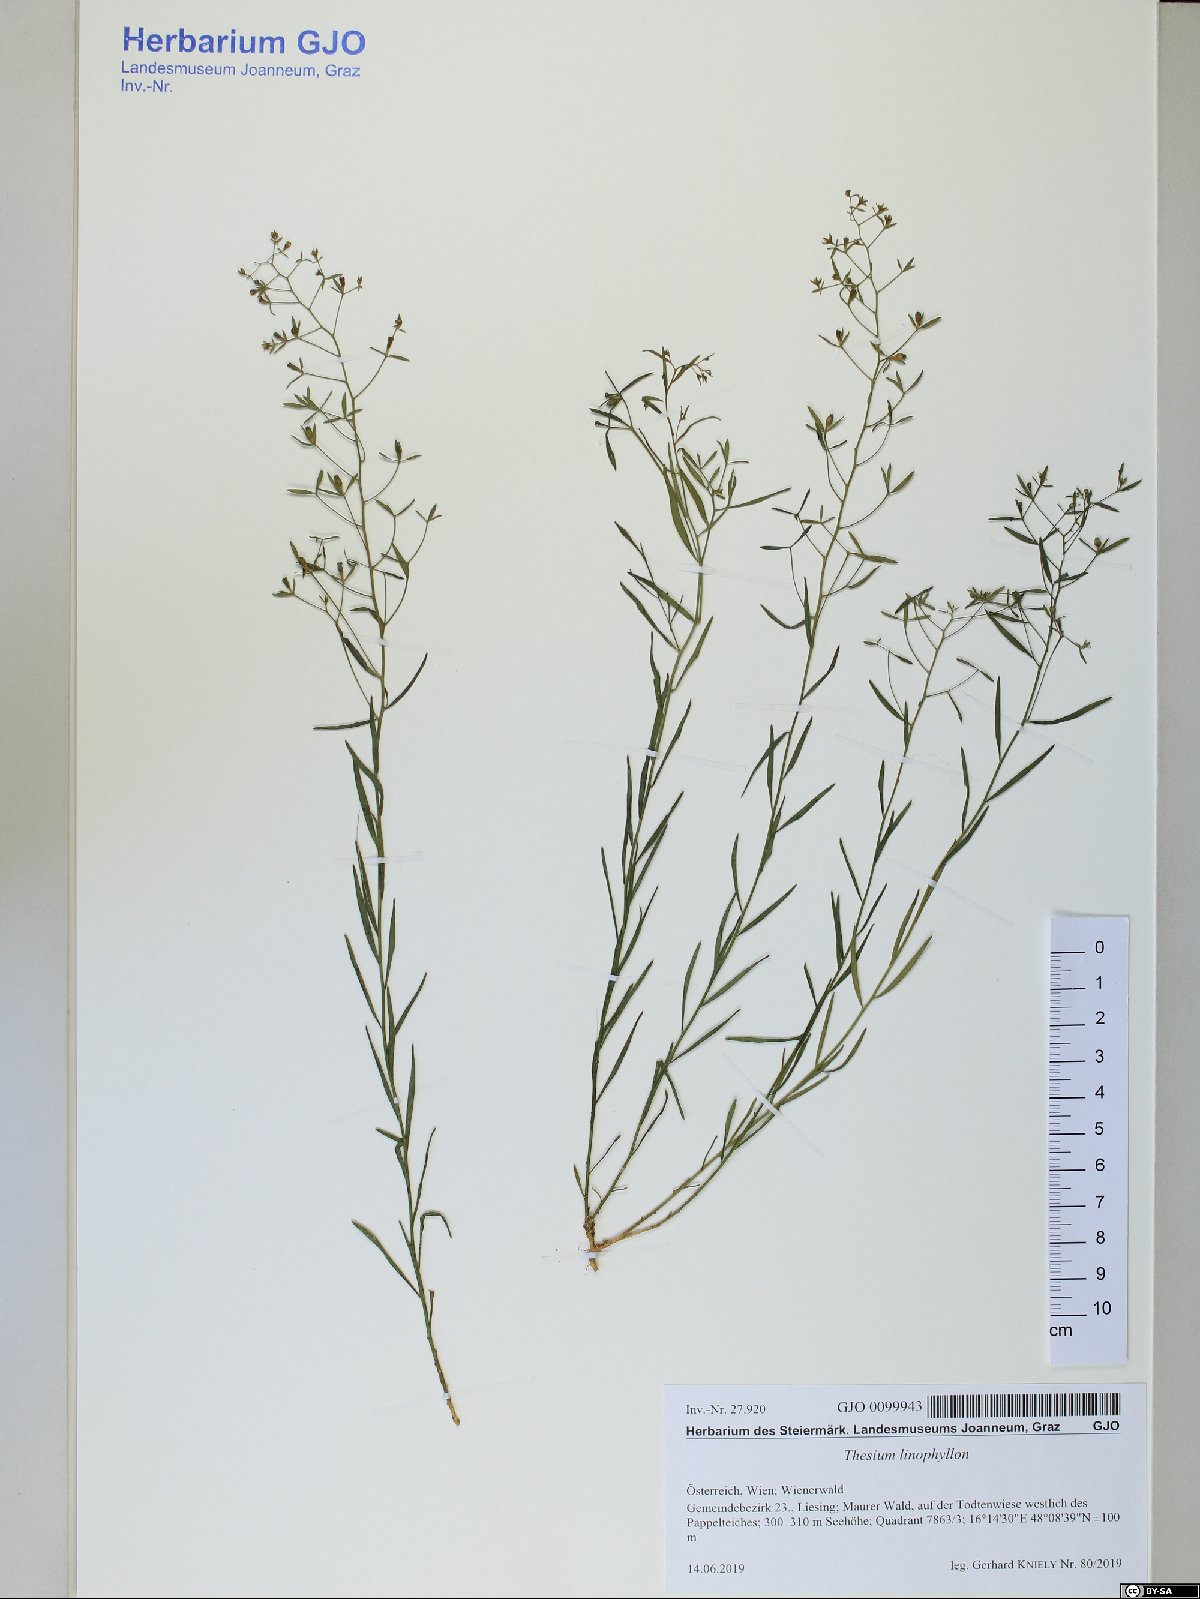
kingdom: Plantae
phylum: Tracheophyta
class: Magnoliopsida
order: Santalales
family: Thesiaceae
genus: Thesium
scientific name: Thesium linophyllon
